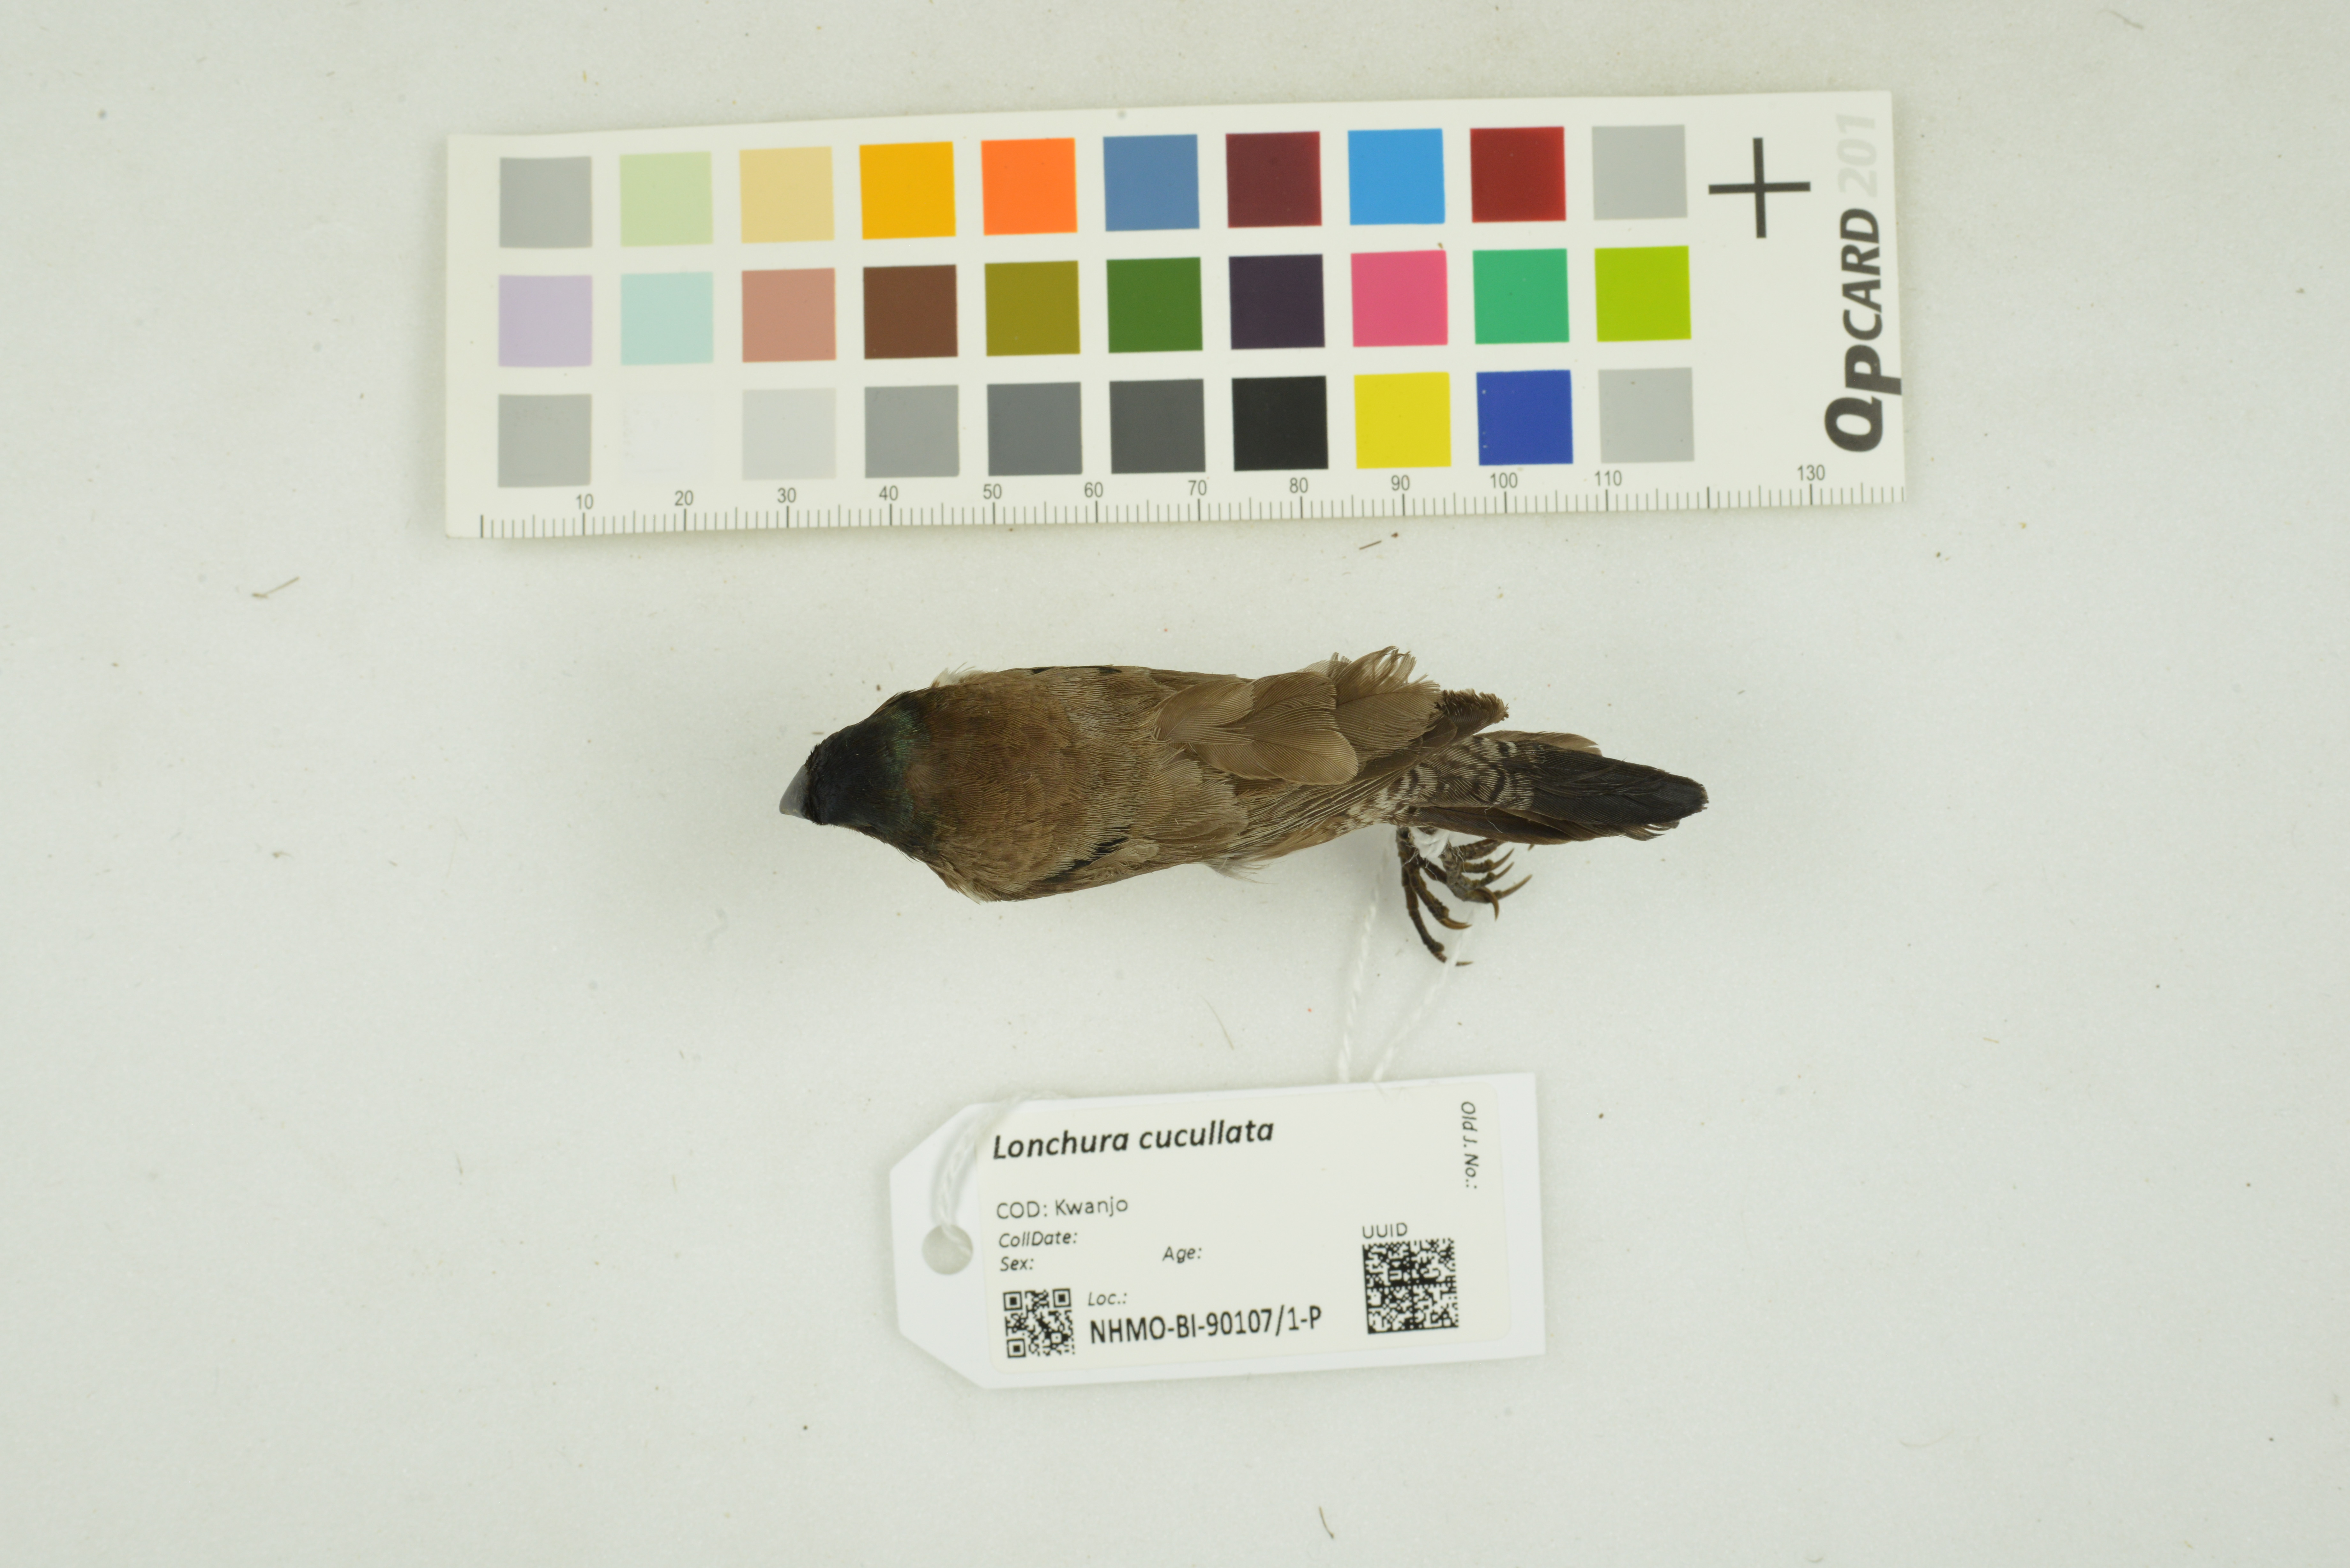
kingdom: Animalia
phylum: Chordata
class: Aves
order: Passeriformes
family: Estrildidae
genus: Lonchura
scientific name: Lonchura cucullata
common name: Bronze mannikin
